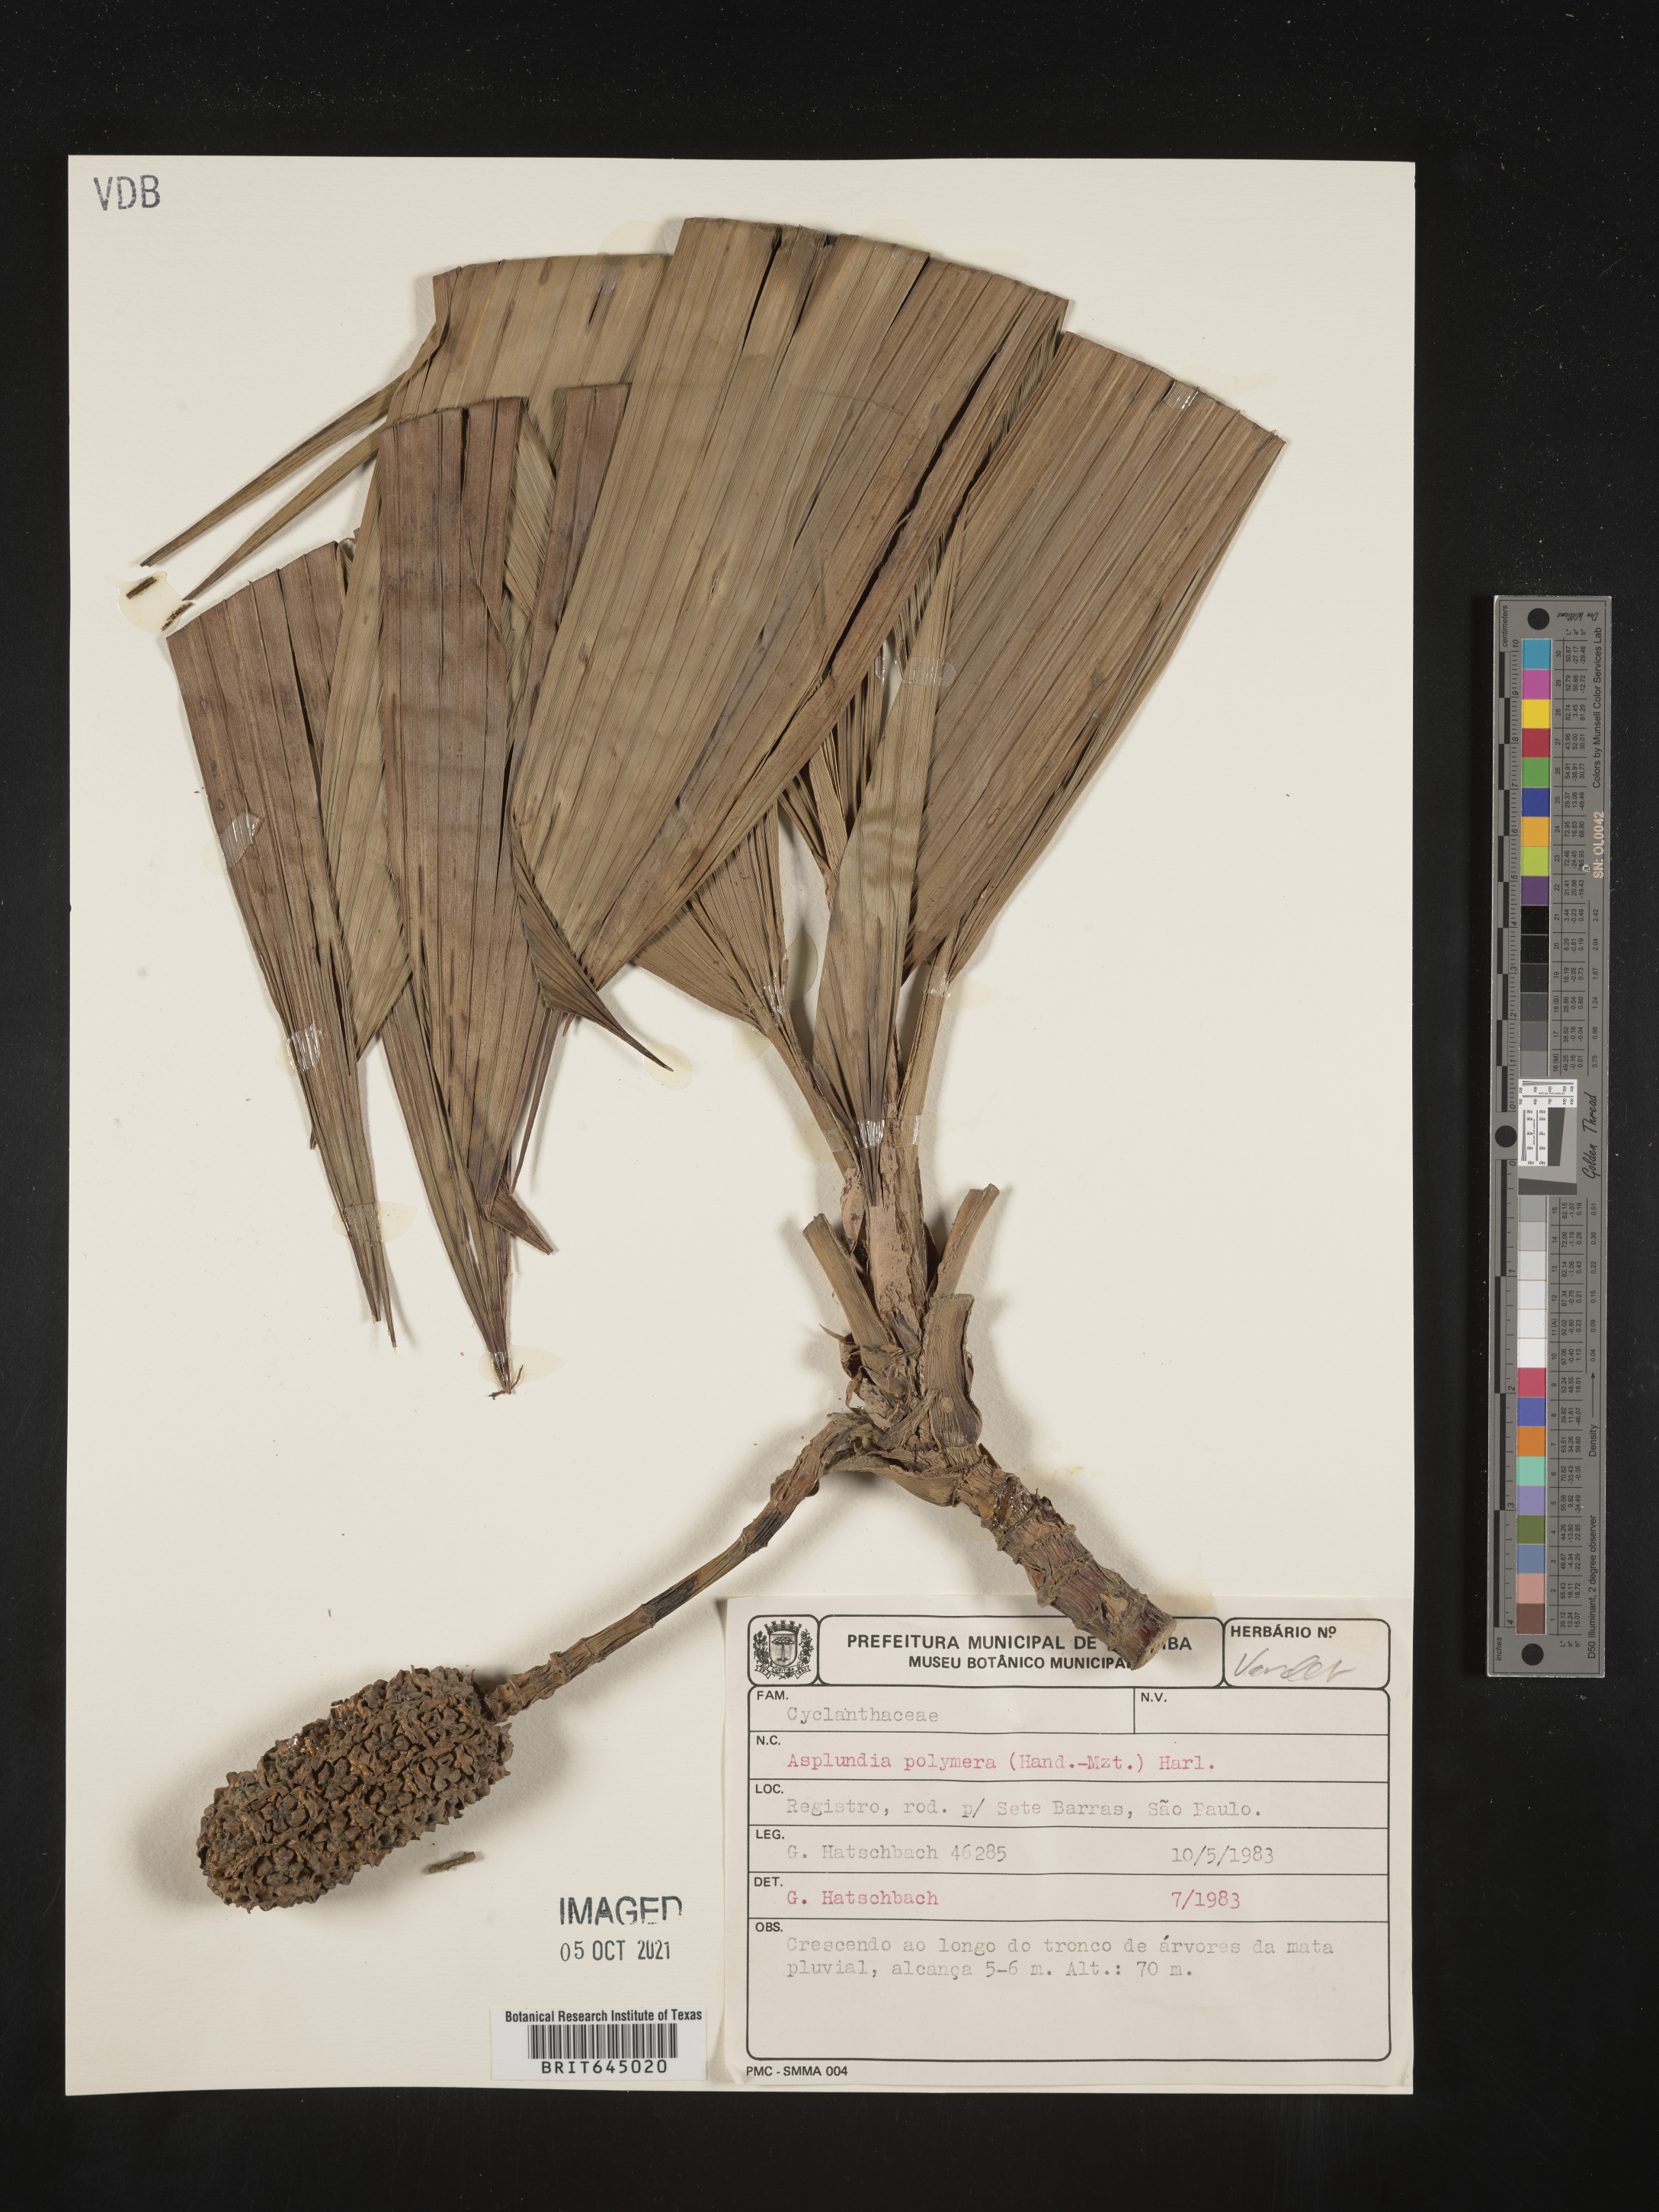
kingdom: Plantae
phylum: Tracheophyta
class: Liliopsida
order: Pandanales
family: Cyclanthaceae
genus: Asplundia
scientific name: Asplundia polymera
